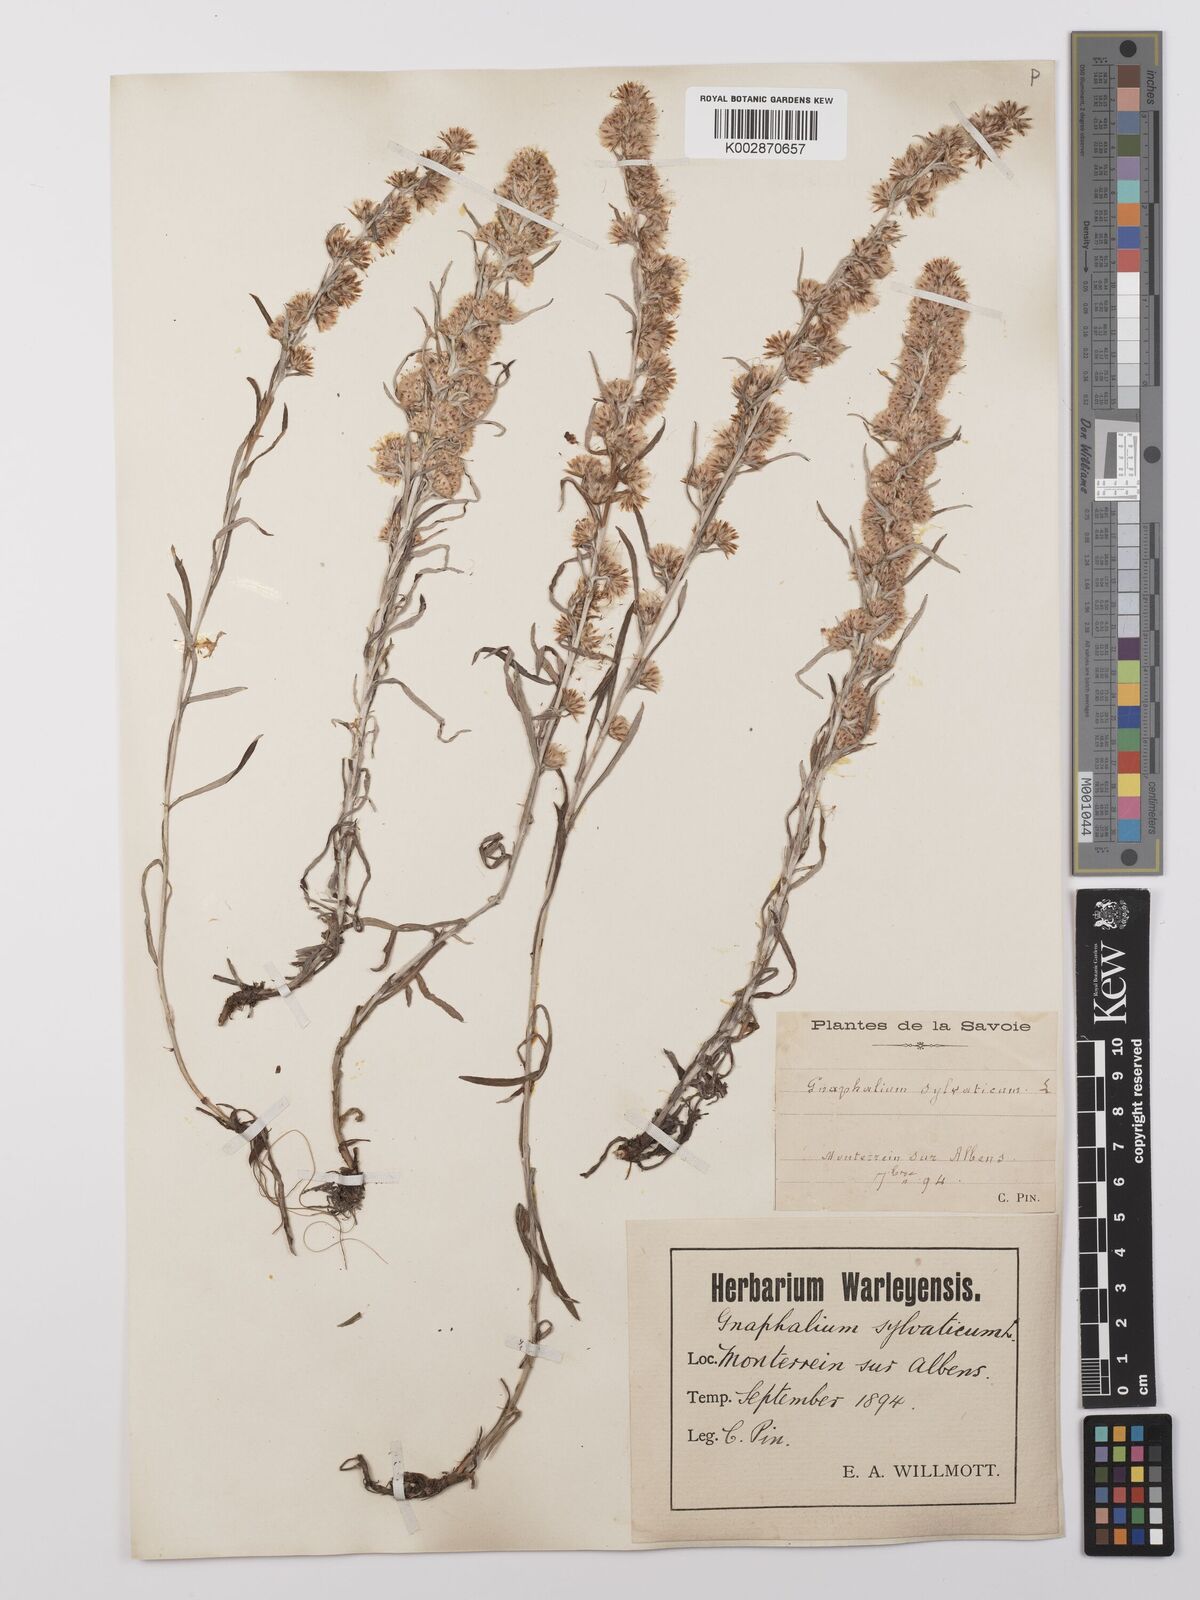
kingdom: Plantae
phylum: Tracheophyta
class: Magnoliopsida
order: Asterales
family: Asteraceae
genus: Omalotheca
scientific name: Omalotheca sylvatica
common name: Heath cudweed
